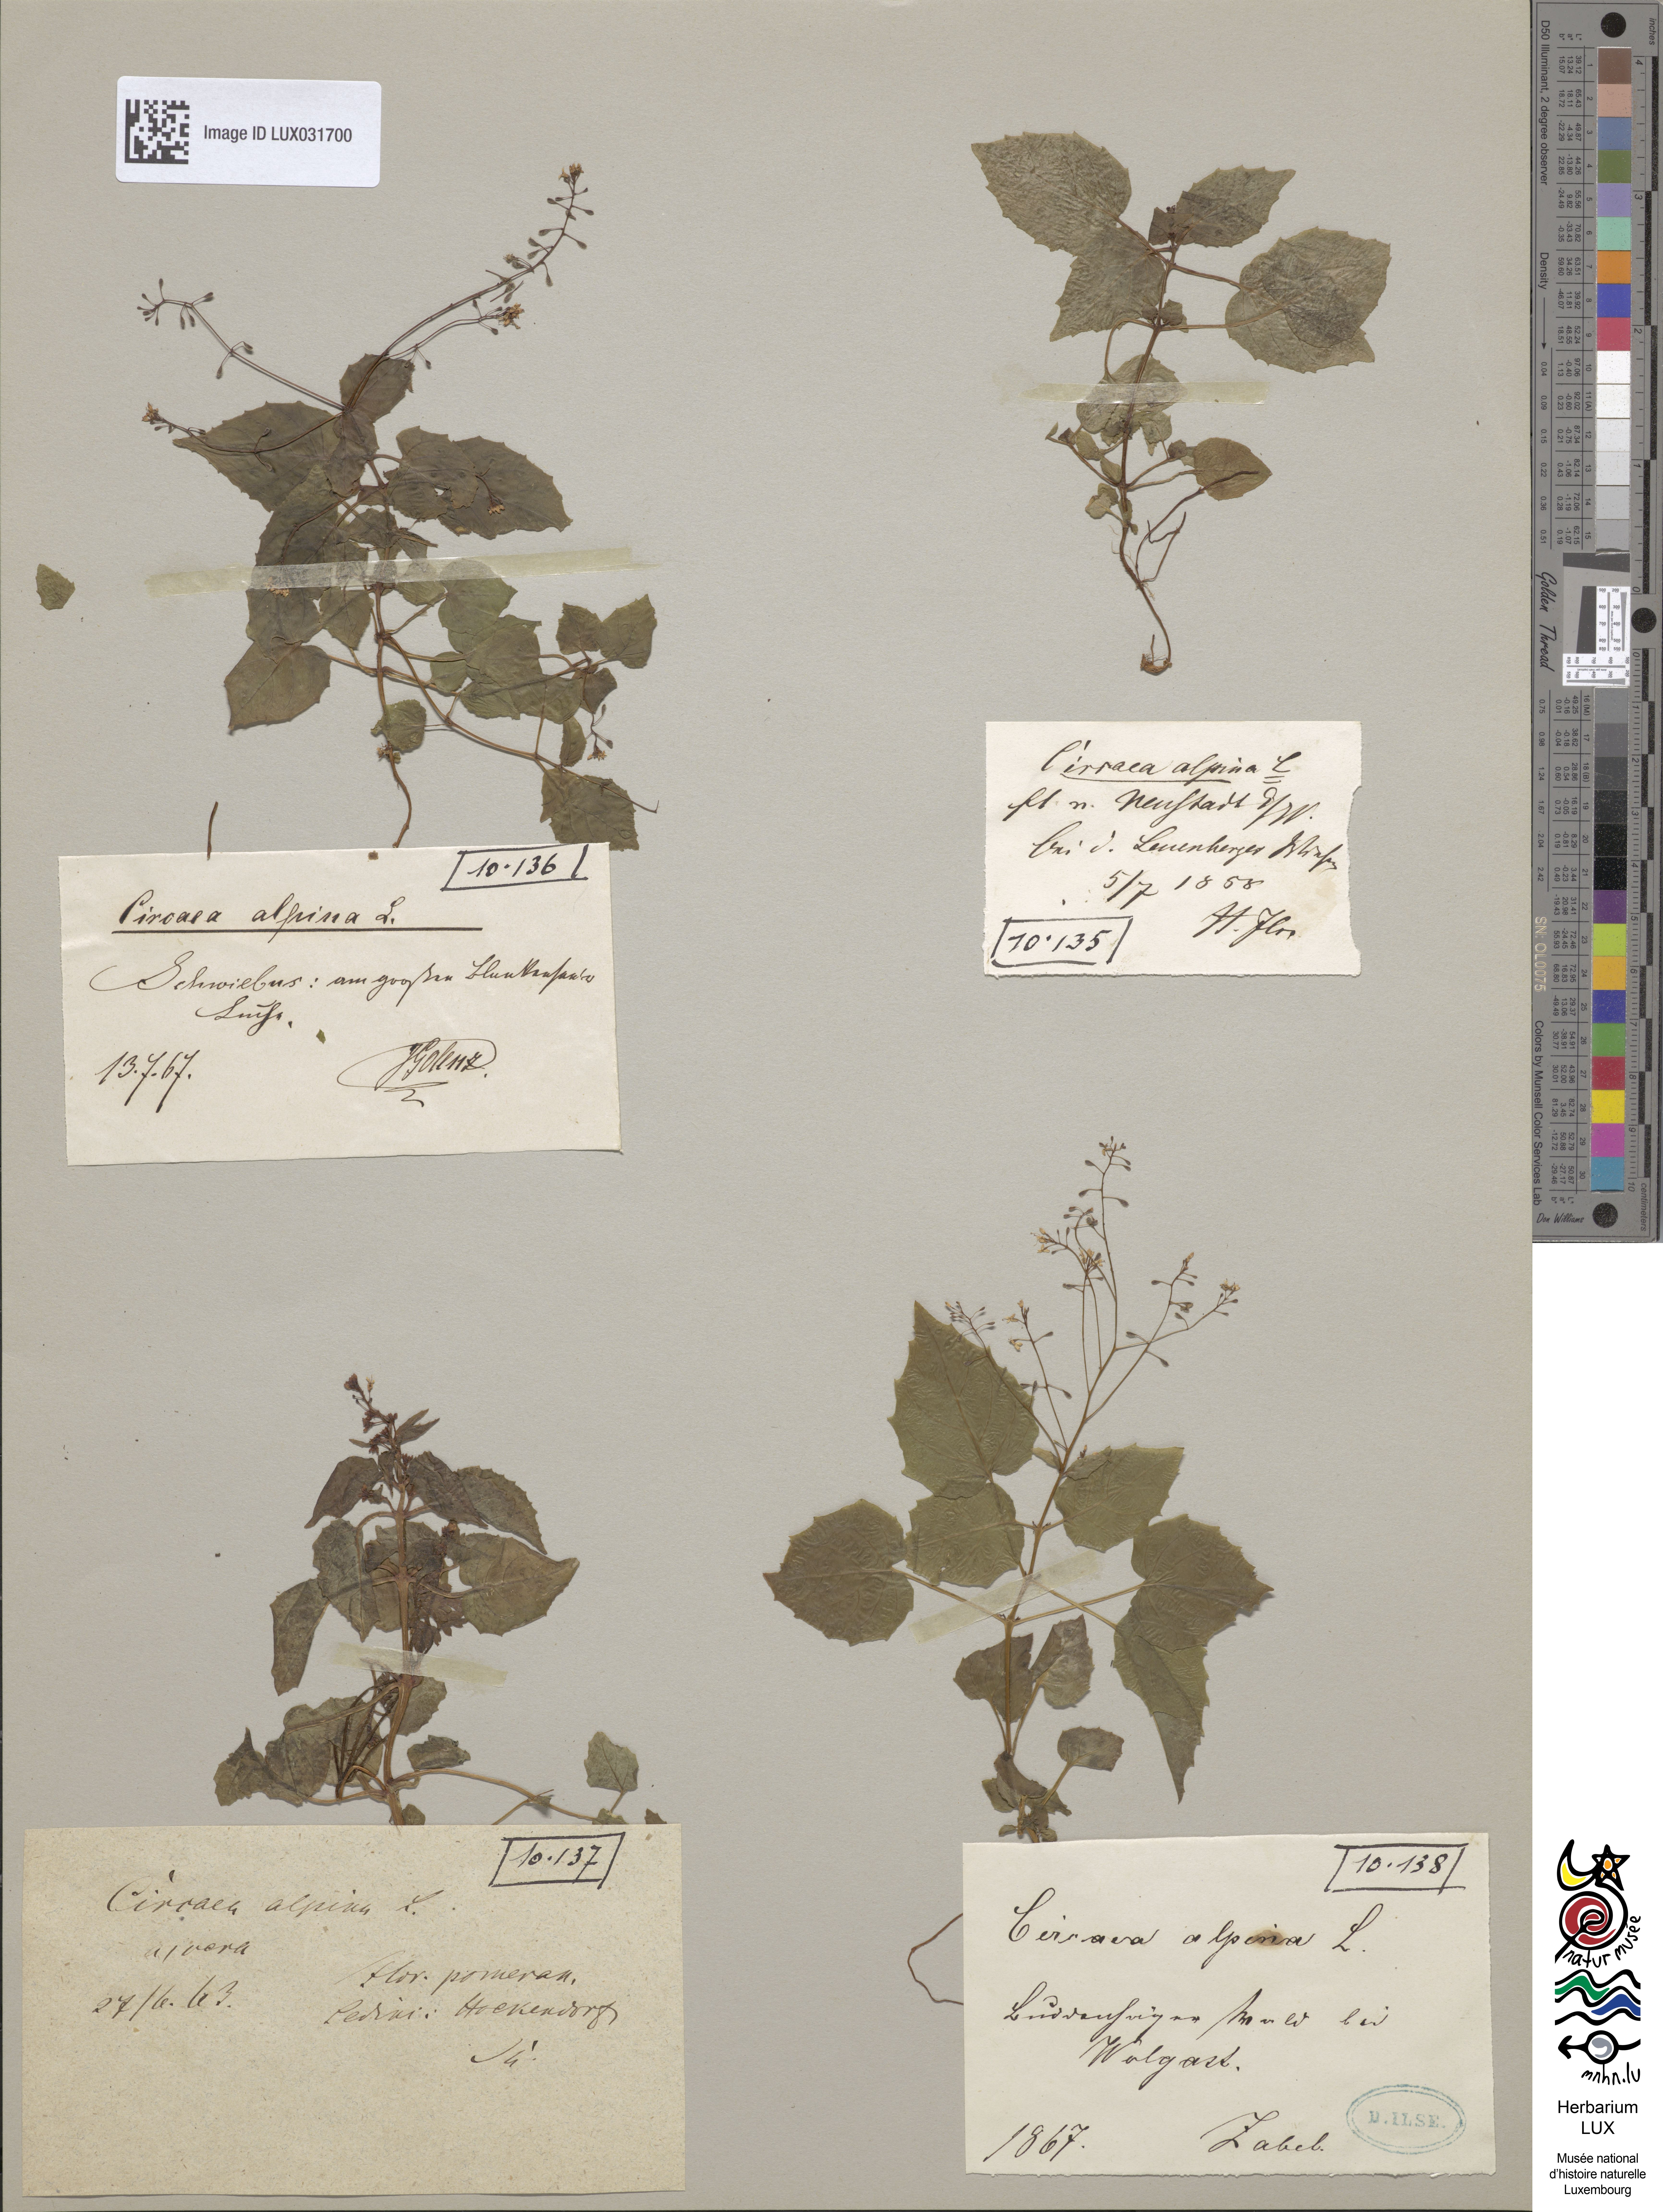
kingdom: Plantae
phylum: Tracheophyta
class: Magnoliopsida
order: Myrtales
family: Onagraceae
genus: Circaea
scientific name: Circaea alpina
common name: Alpine enchanter's-nightshade
